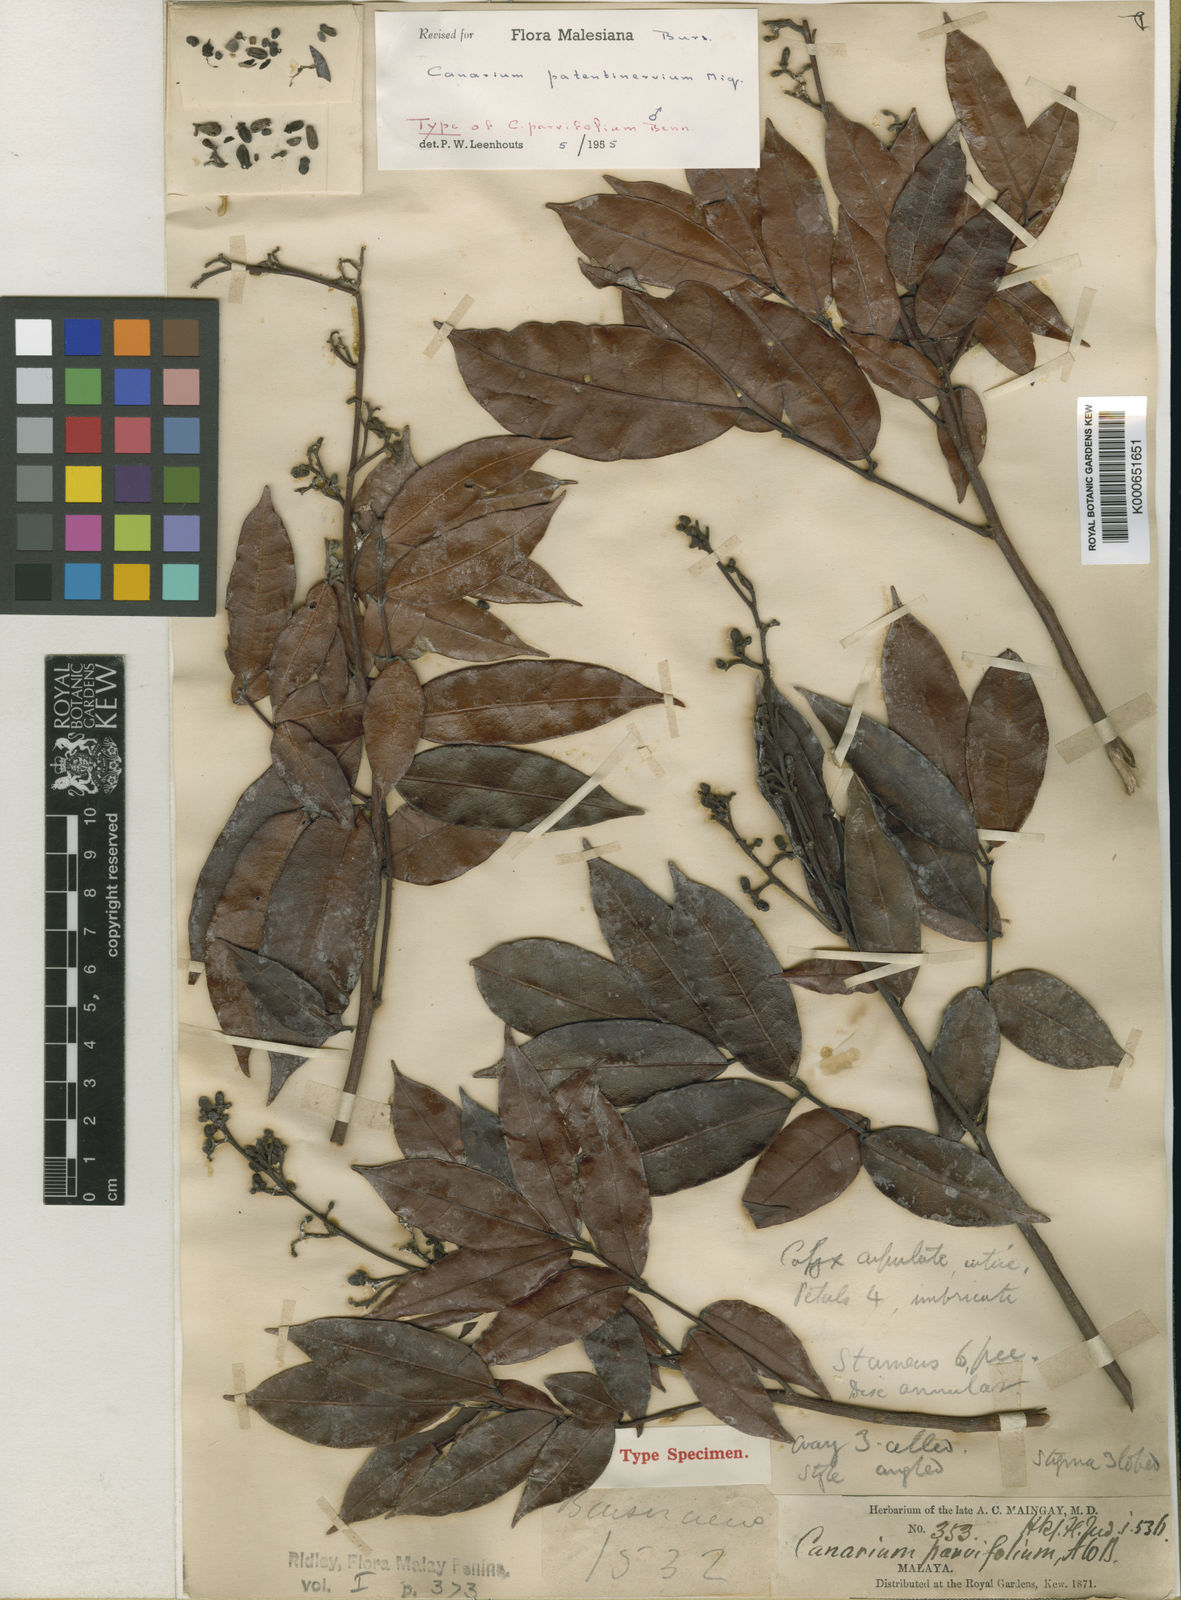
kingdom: Plantae
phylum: Tracheophyta
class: Magnoliopsida
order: Sapindales
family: Burseraceae
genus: Canarium
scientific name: Canarium patentinervium
